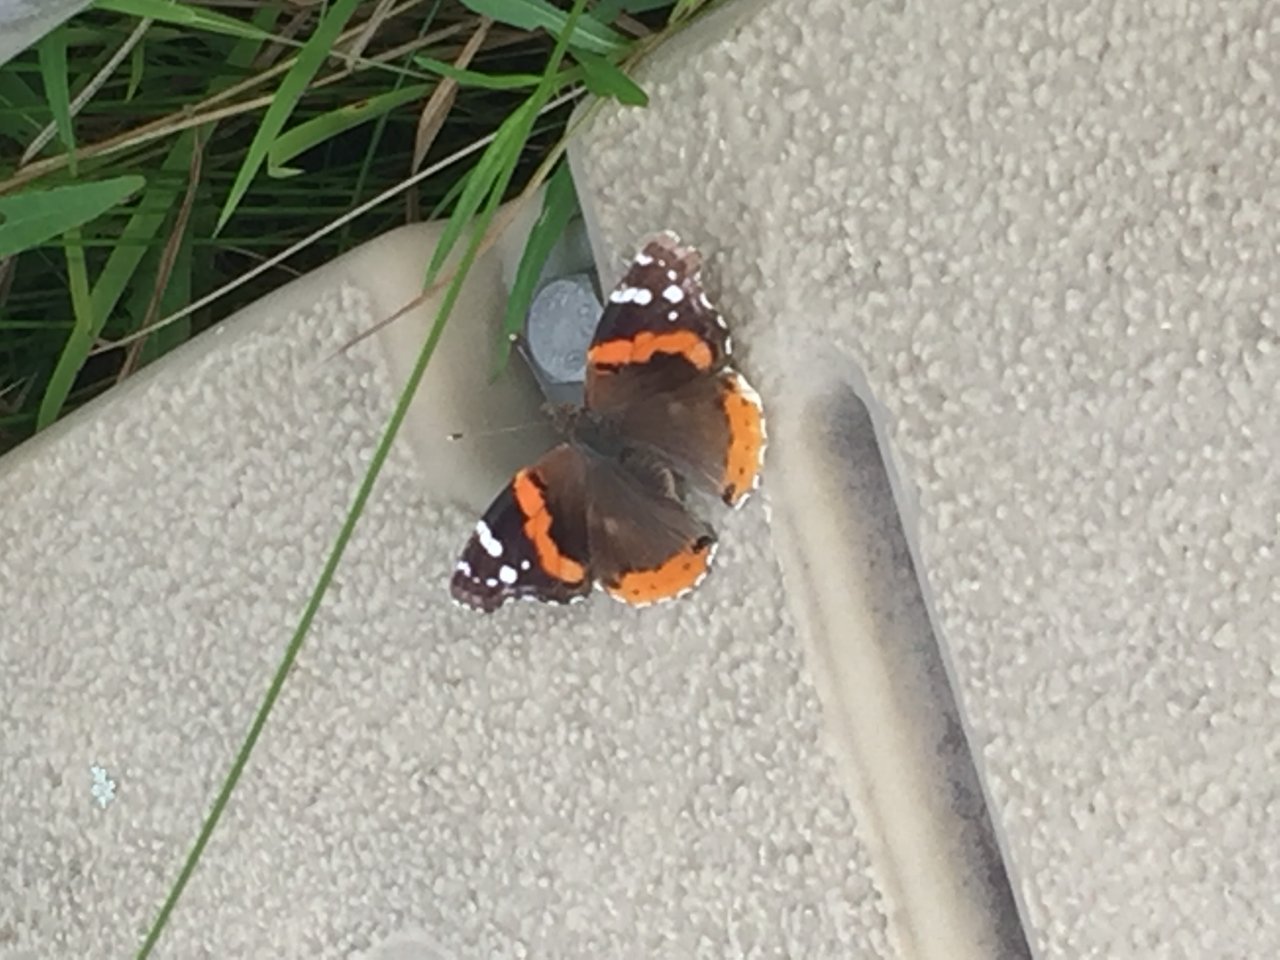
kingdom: Animalia
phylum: Arthropoda
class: Insecta
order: Lepidoptera
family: Nymphalidae
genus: Vanessa
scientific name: Vanessa atalanta
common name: Red Admiral
